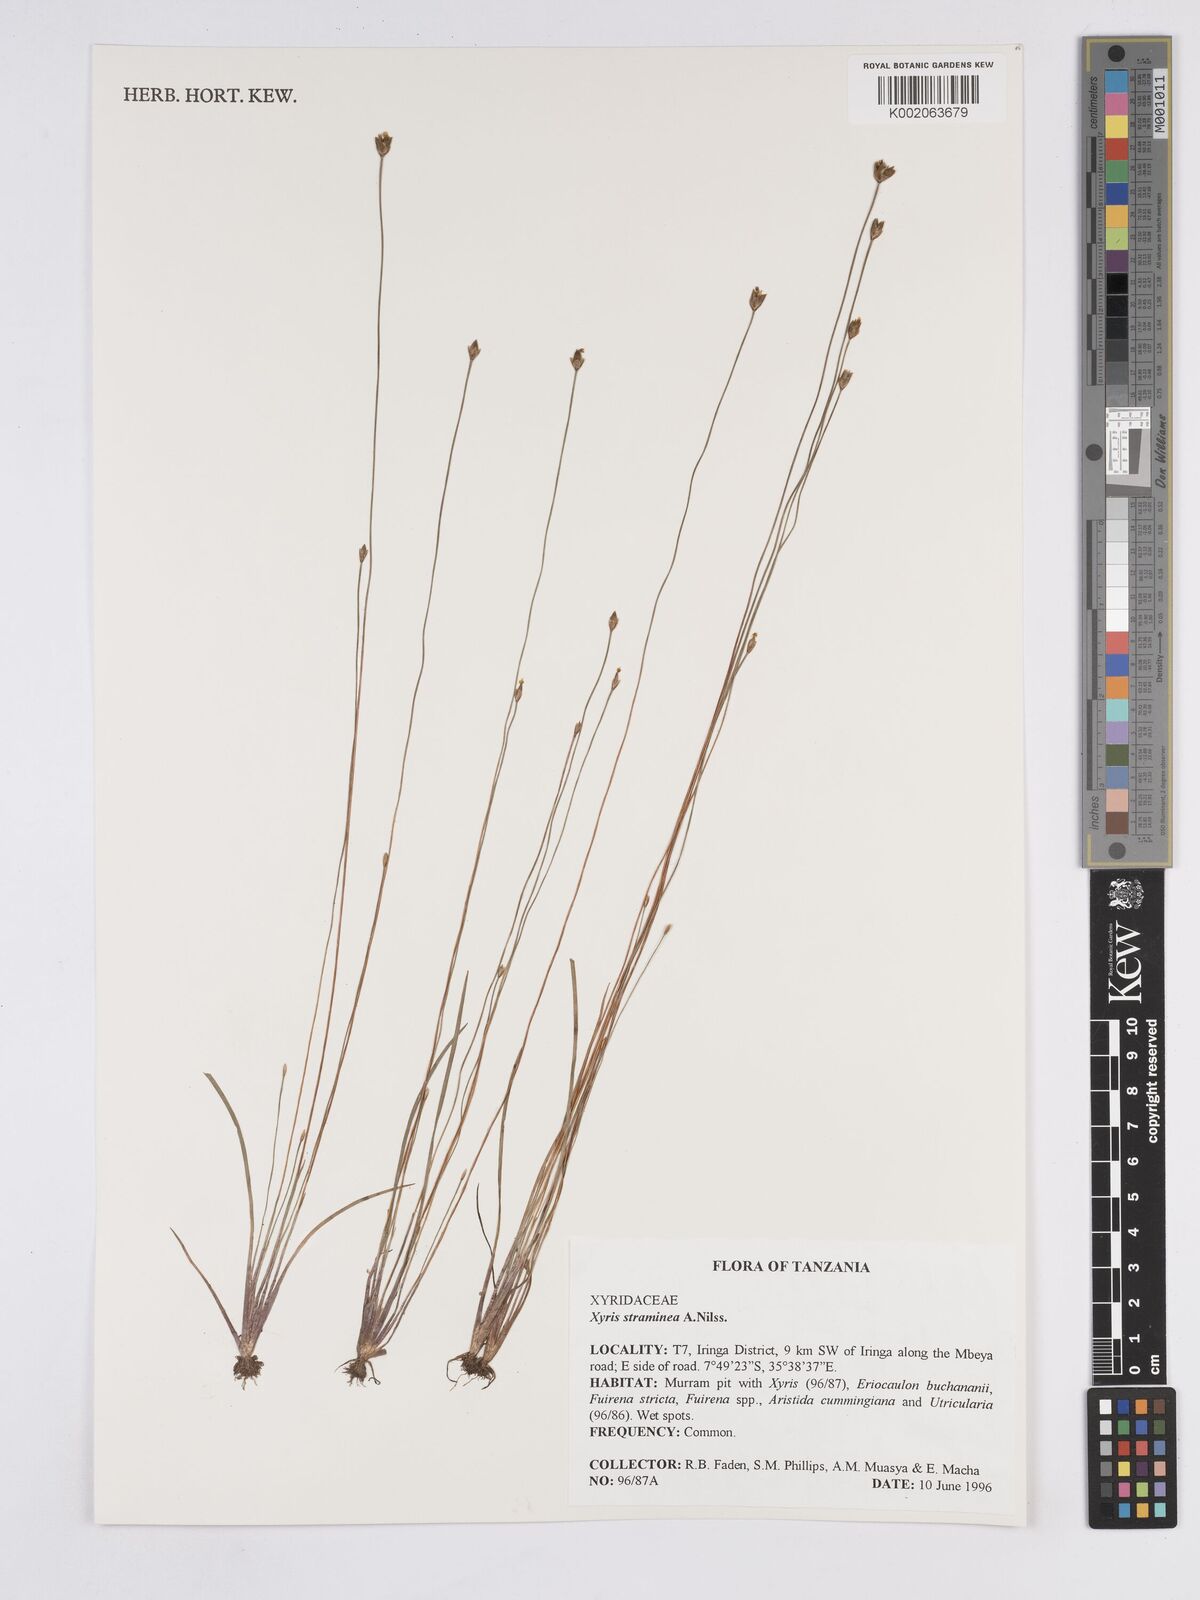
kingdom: Plantae
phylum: Tracheophyta
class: Liliopsida
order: Poales
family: Xyridaceae
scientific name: Xyridaceae
